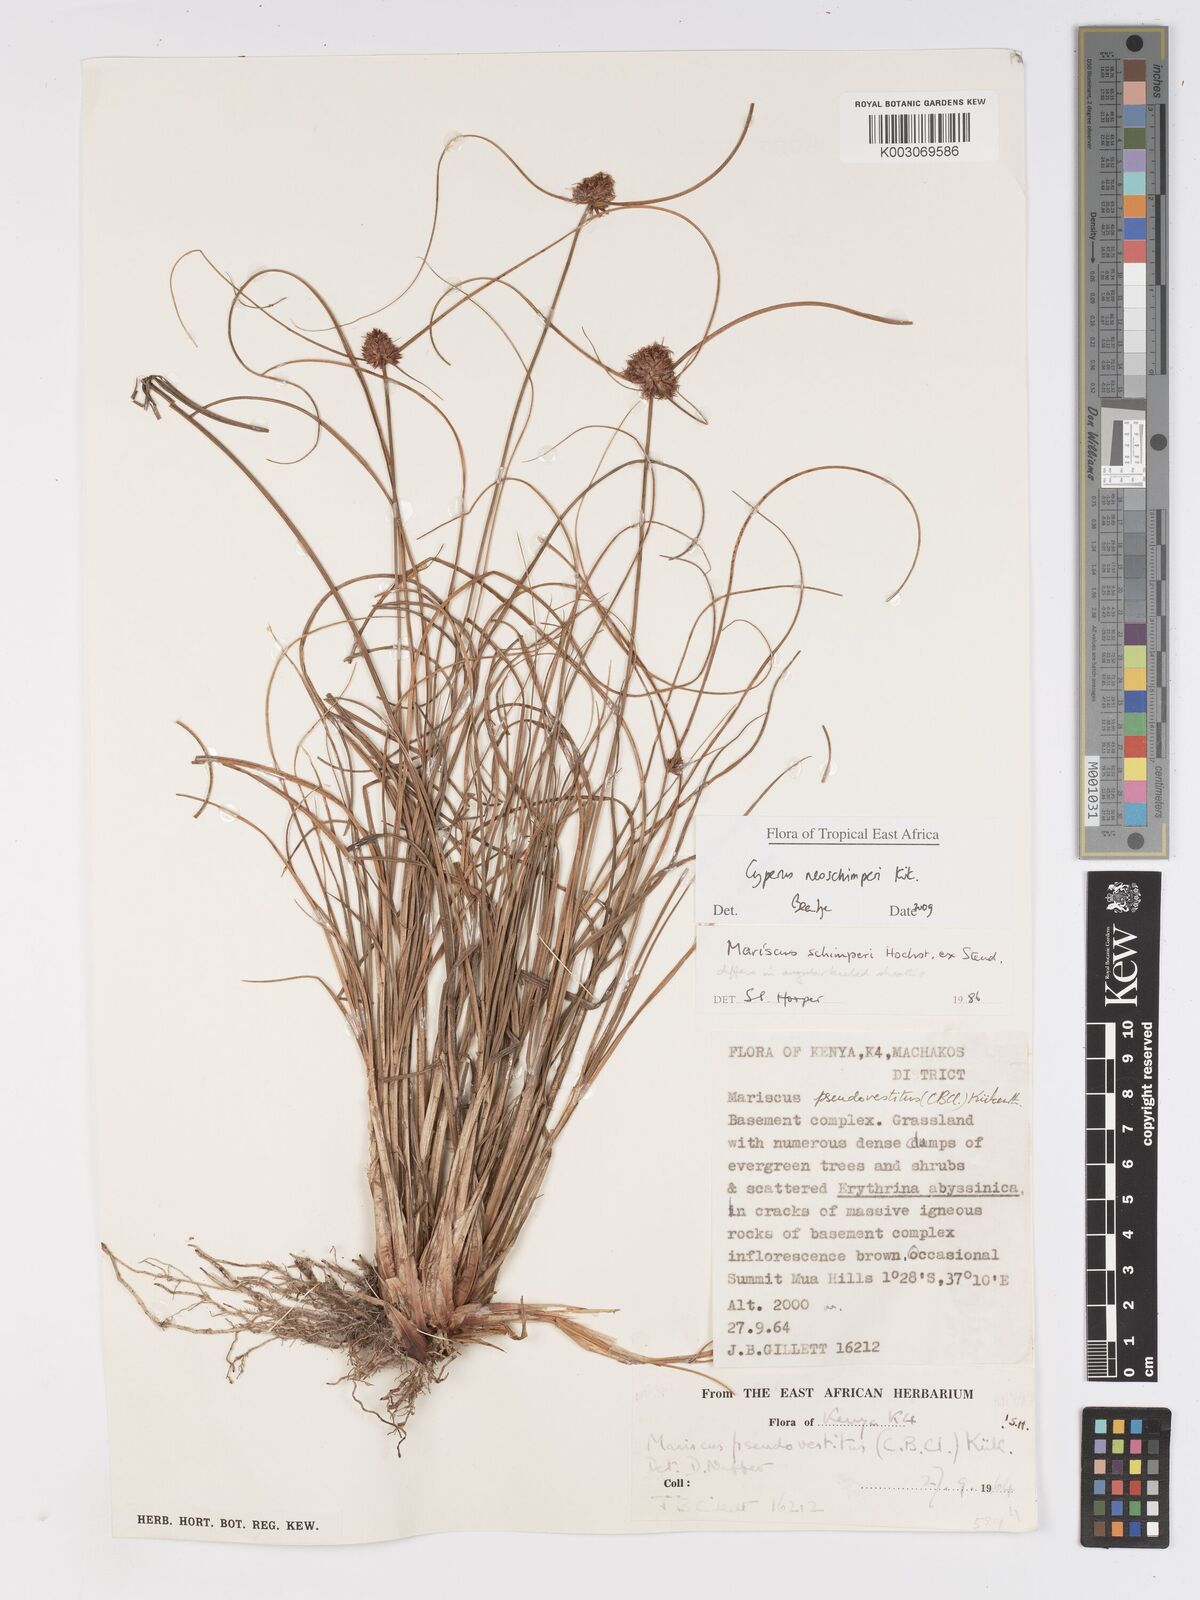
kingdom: Plantae
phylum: Tracheophyta
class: Liliopsida
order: Poales
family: Cyperaceae
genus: Cyperus
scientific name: Cyperus cruentus
